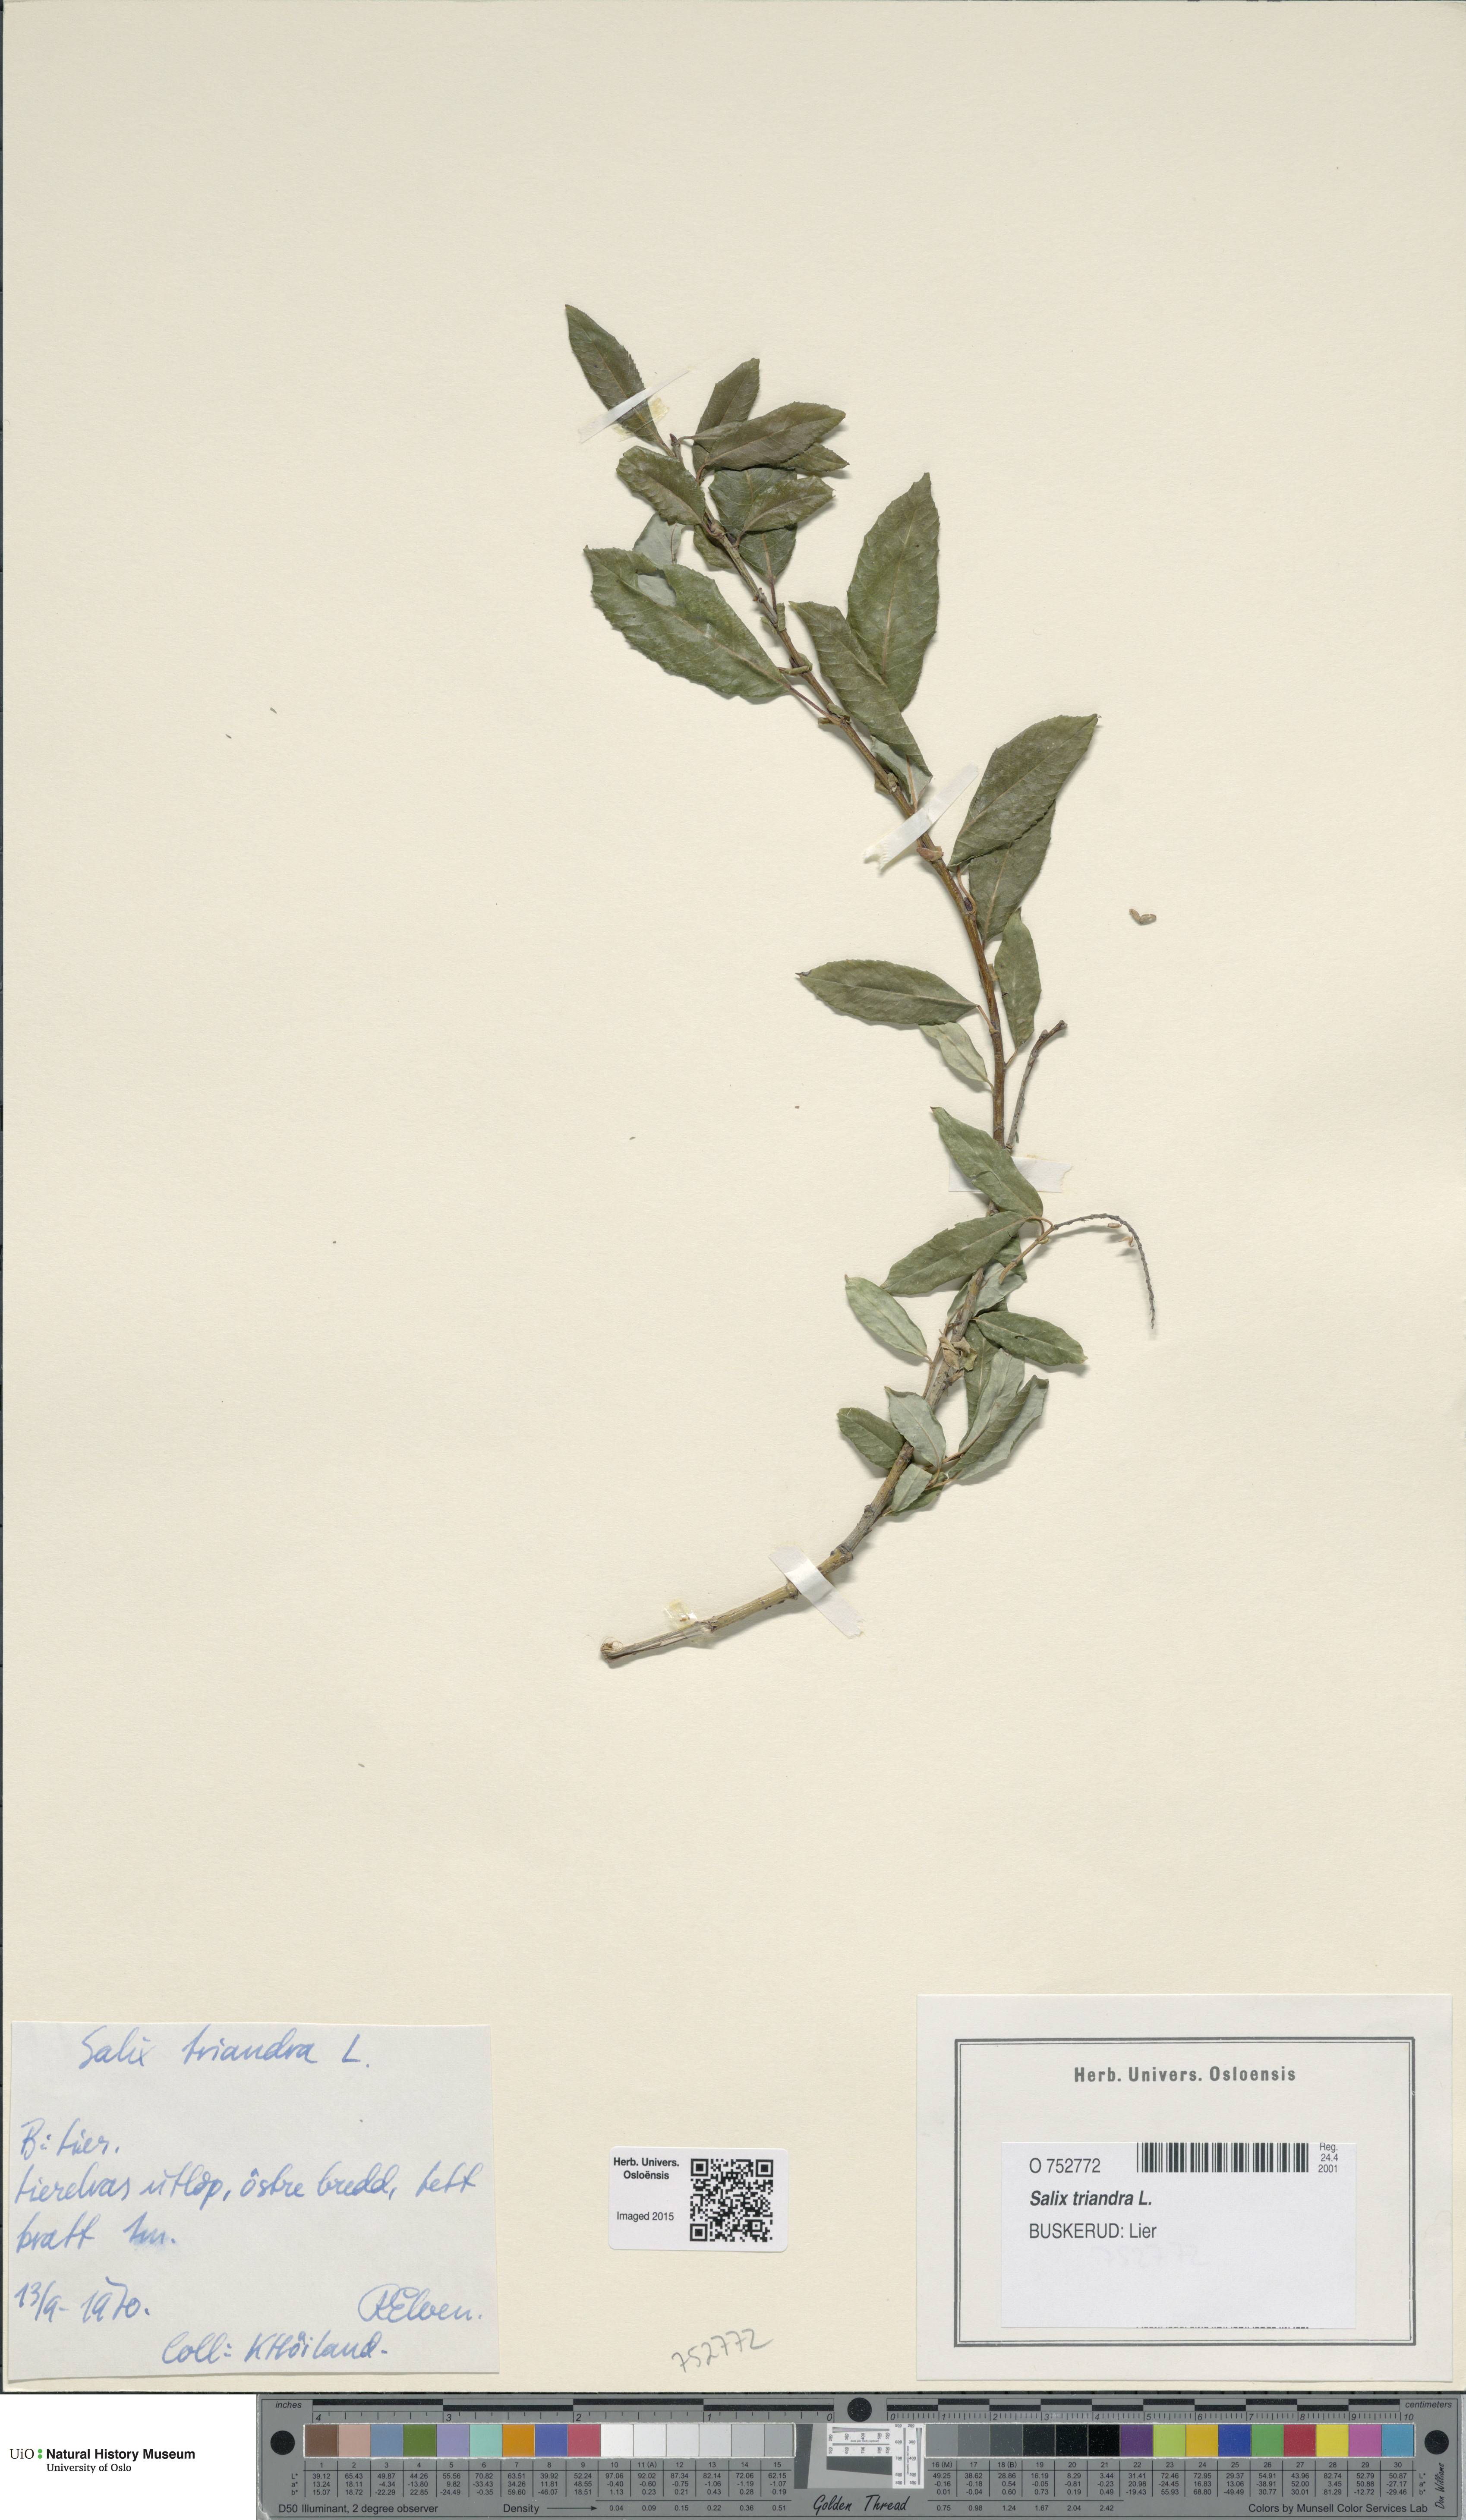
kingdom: Plantae
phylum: Tracheophyta
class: Magnoliopsida
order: Malpighiales
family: Salicaceae
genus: Salix
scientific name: Salix triandra
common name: Almond willow
